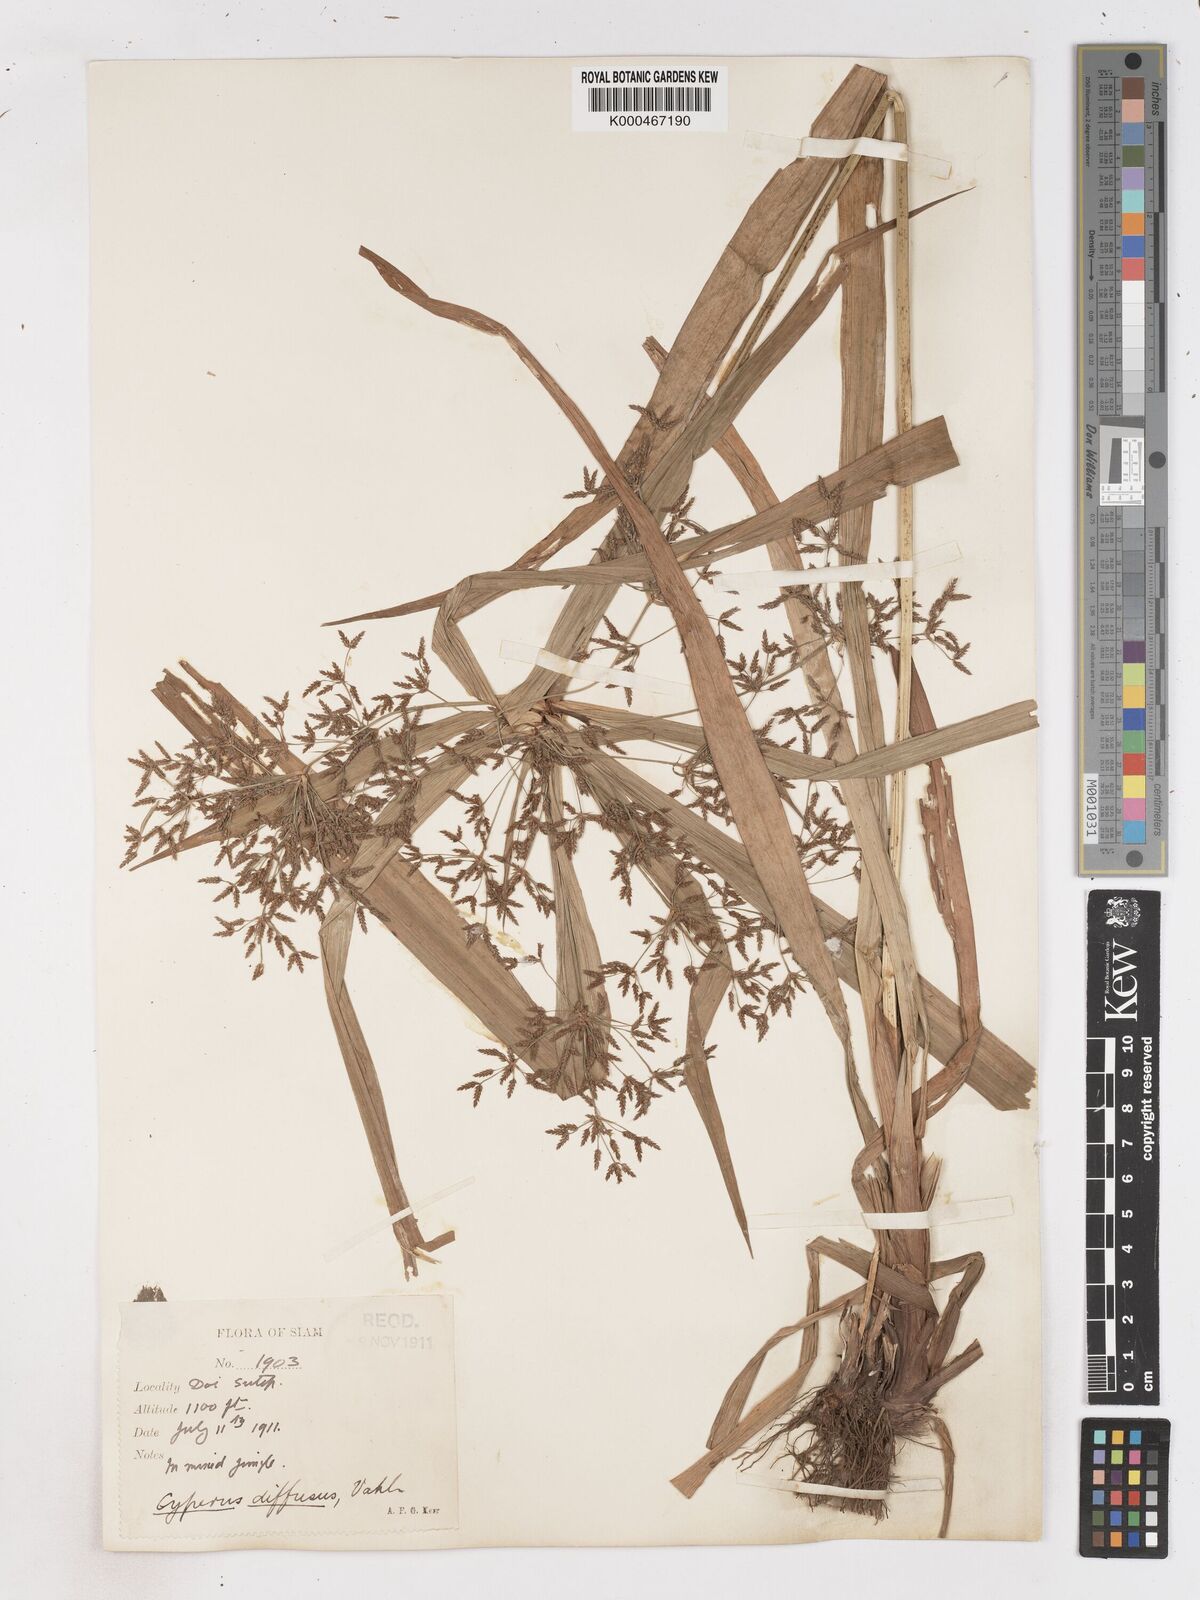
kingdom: Plantae
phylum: Tracheophyta
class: Liliopsida
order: Poales
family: Cyperaceae
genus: Cyperus
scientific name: Cyperus
